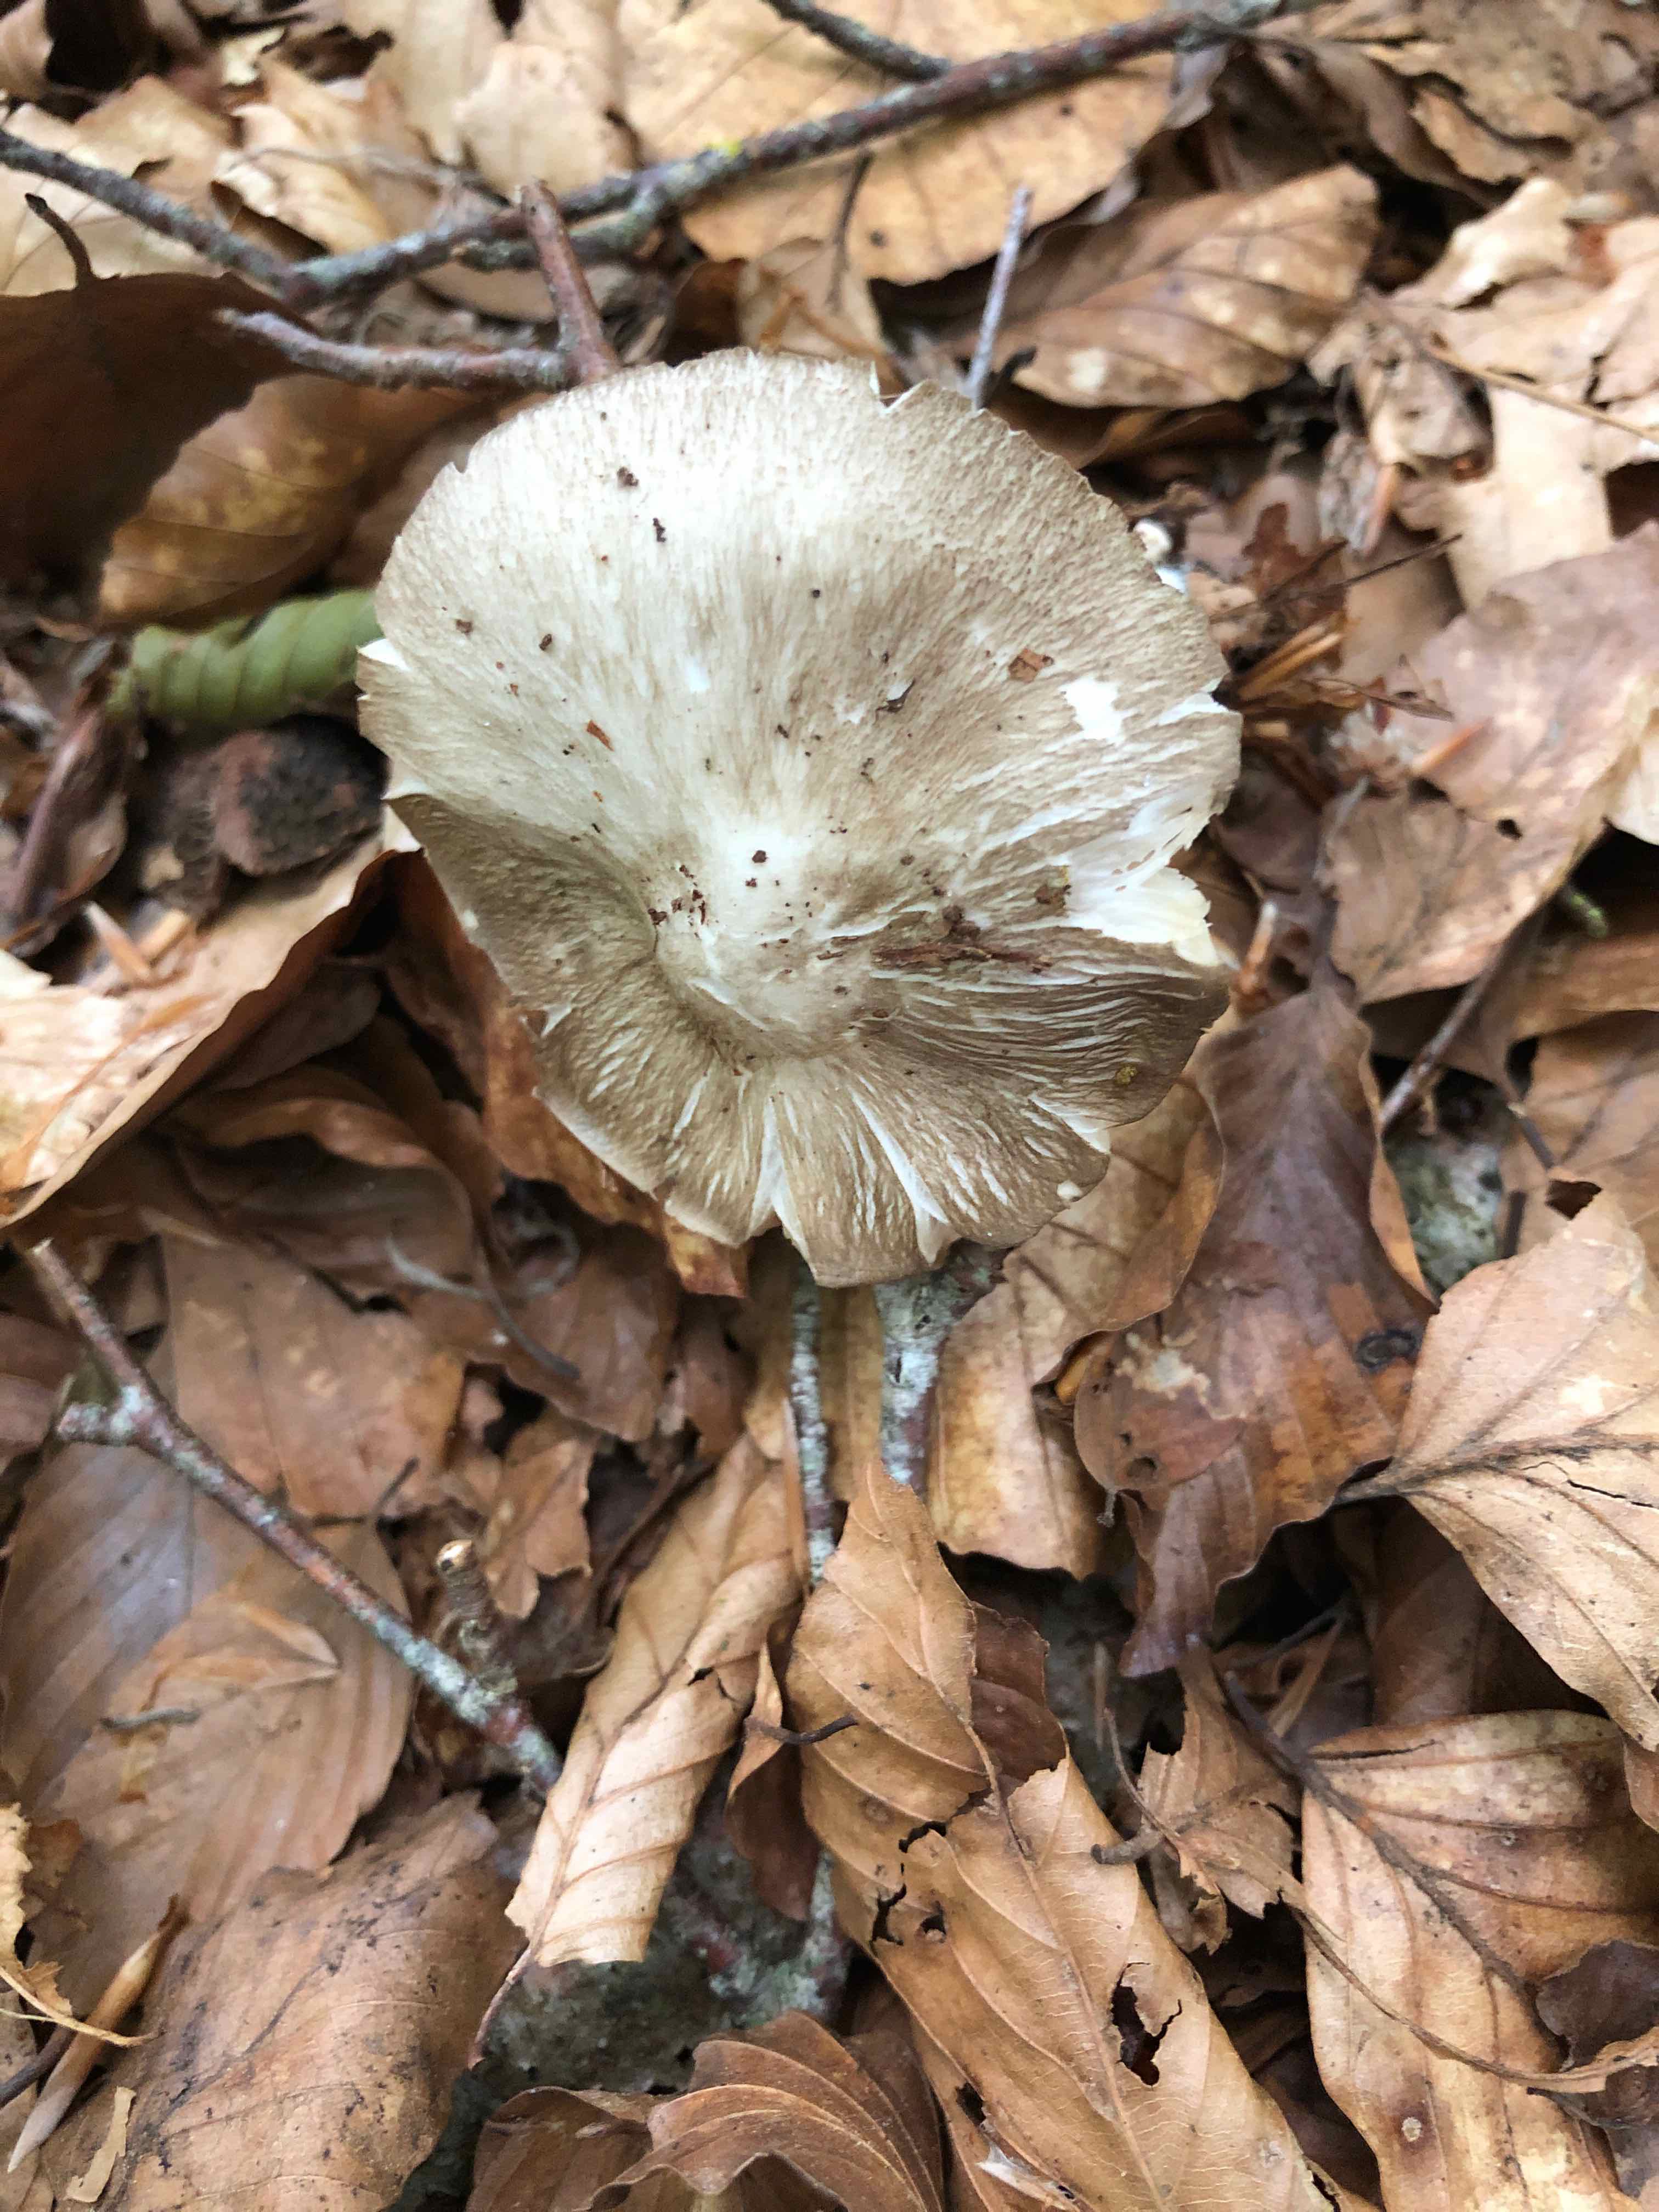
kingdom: Fungi
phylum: Basidiomycota
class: Agaricomycetes
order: Agaricales
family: Tricholomataceae
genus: Megacollybia
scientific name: Megacollybia platyphylla
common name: bredbladet væbnerhat
